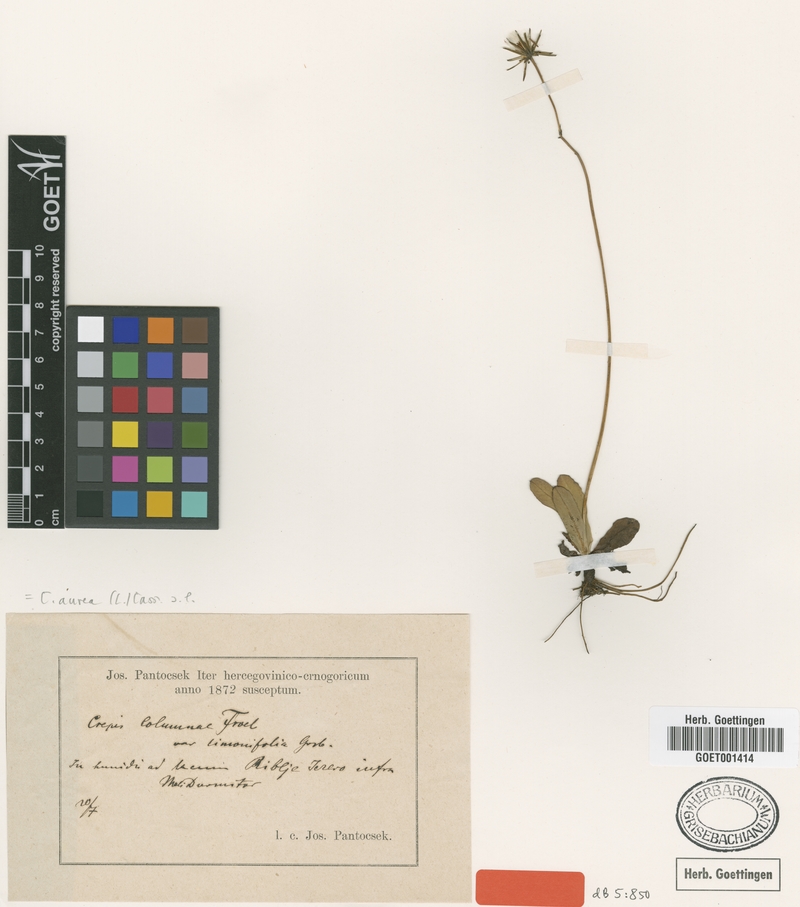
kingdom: Plantae
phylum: Tracheophyta
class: Magnoliopsida
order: Asterales
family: Asteraceae
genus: Crepis
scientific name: Crepis aurea
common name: Golden hawk's-beard
